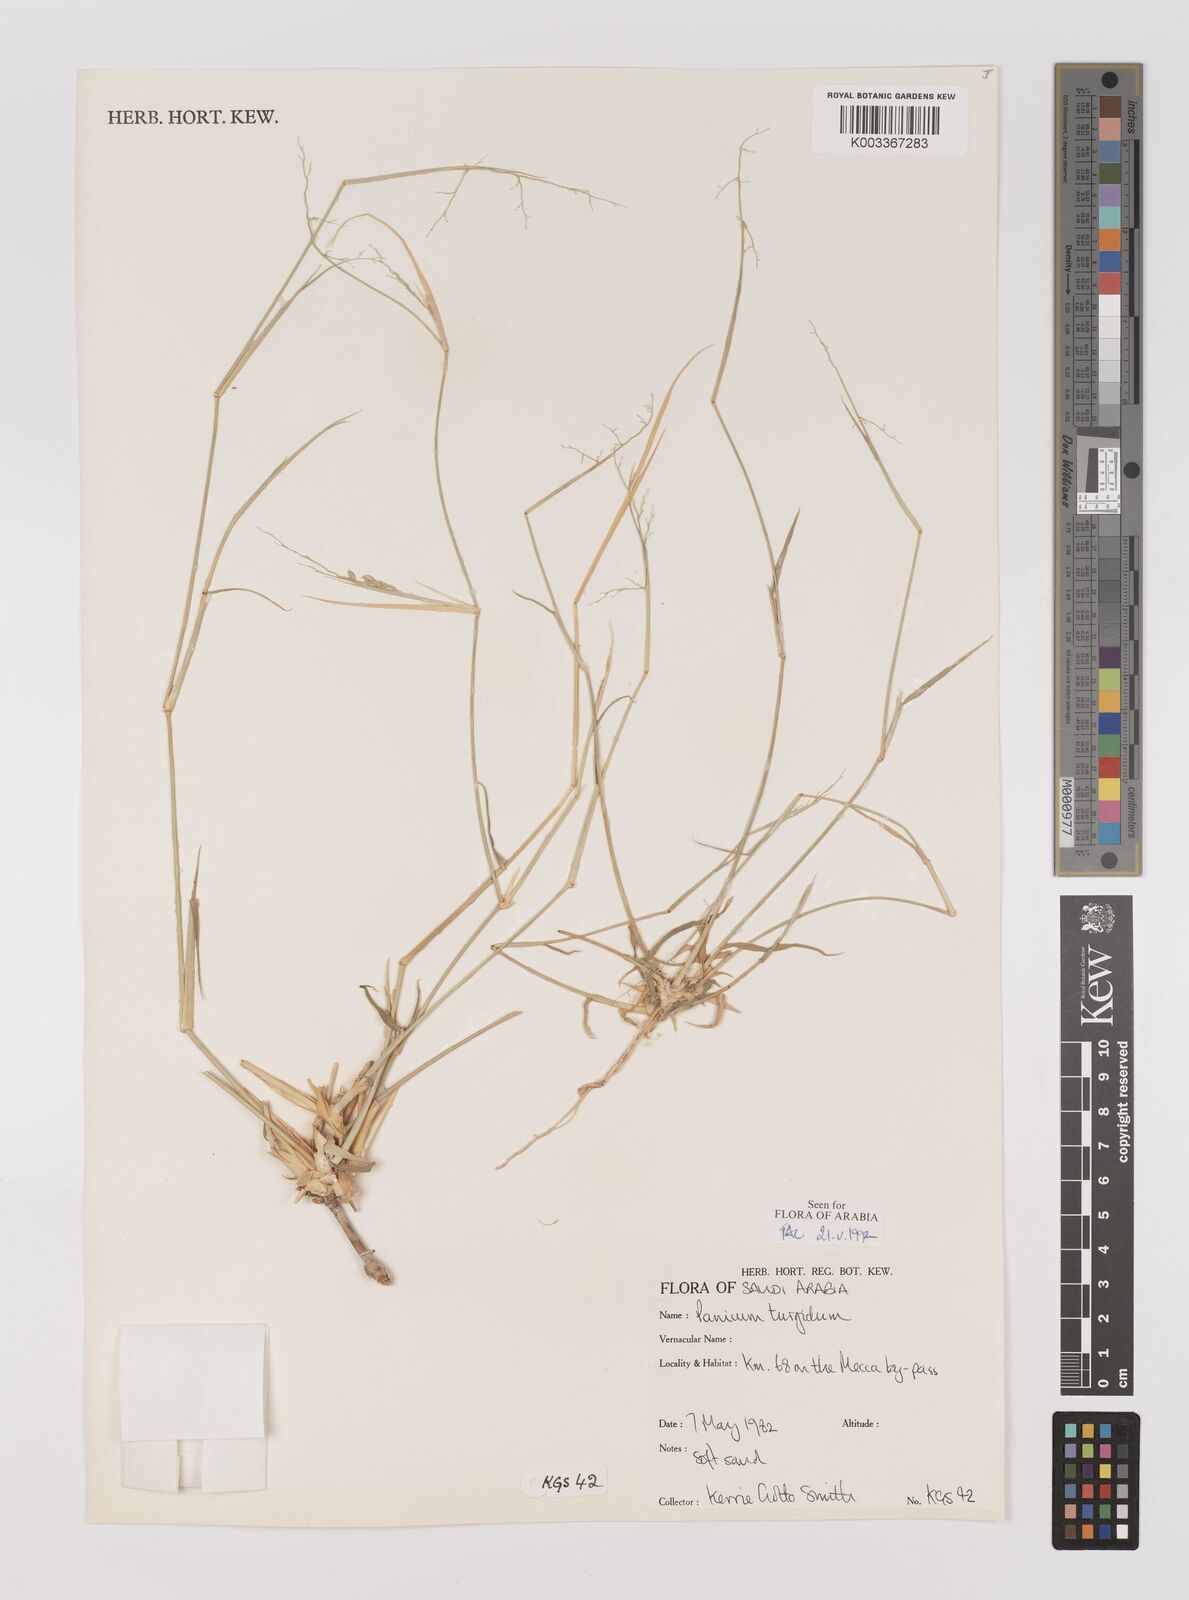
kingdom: Plantae
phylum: Tracheophyta
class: Liliopsida
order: Poales
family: Poaceae
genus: Panicum
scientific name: Panicum turgidum
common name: Desert grass
